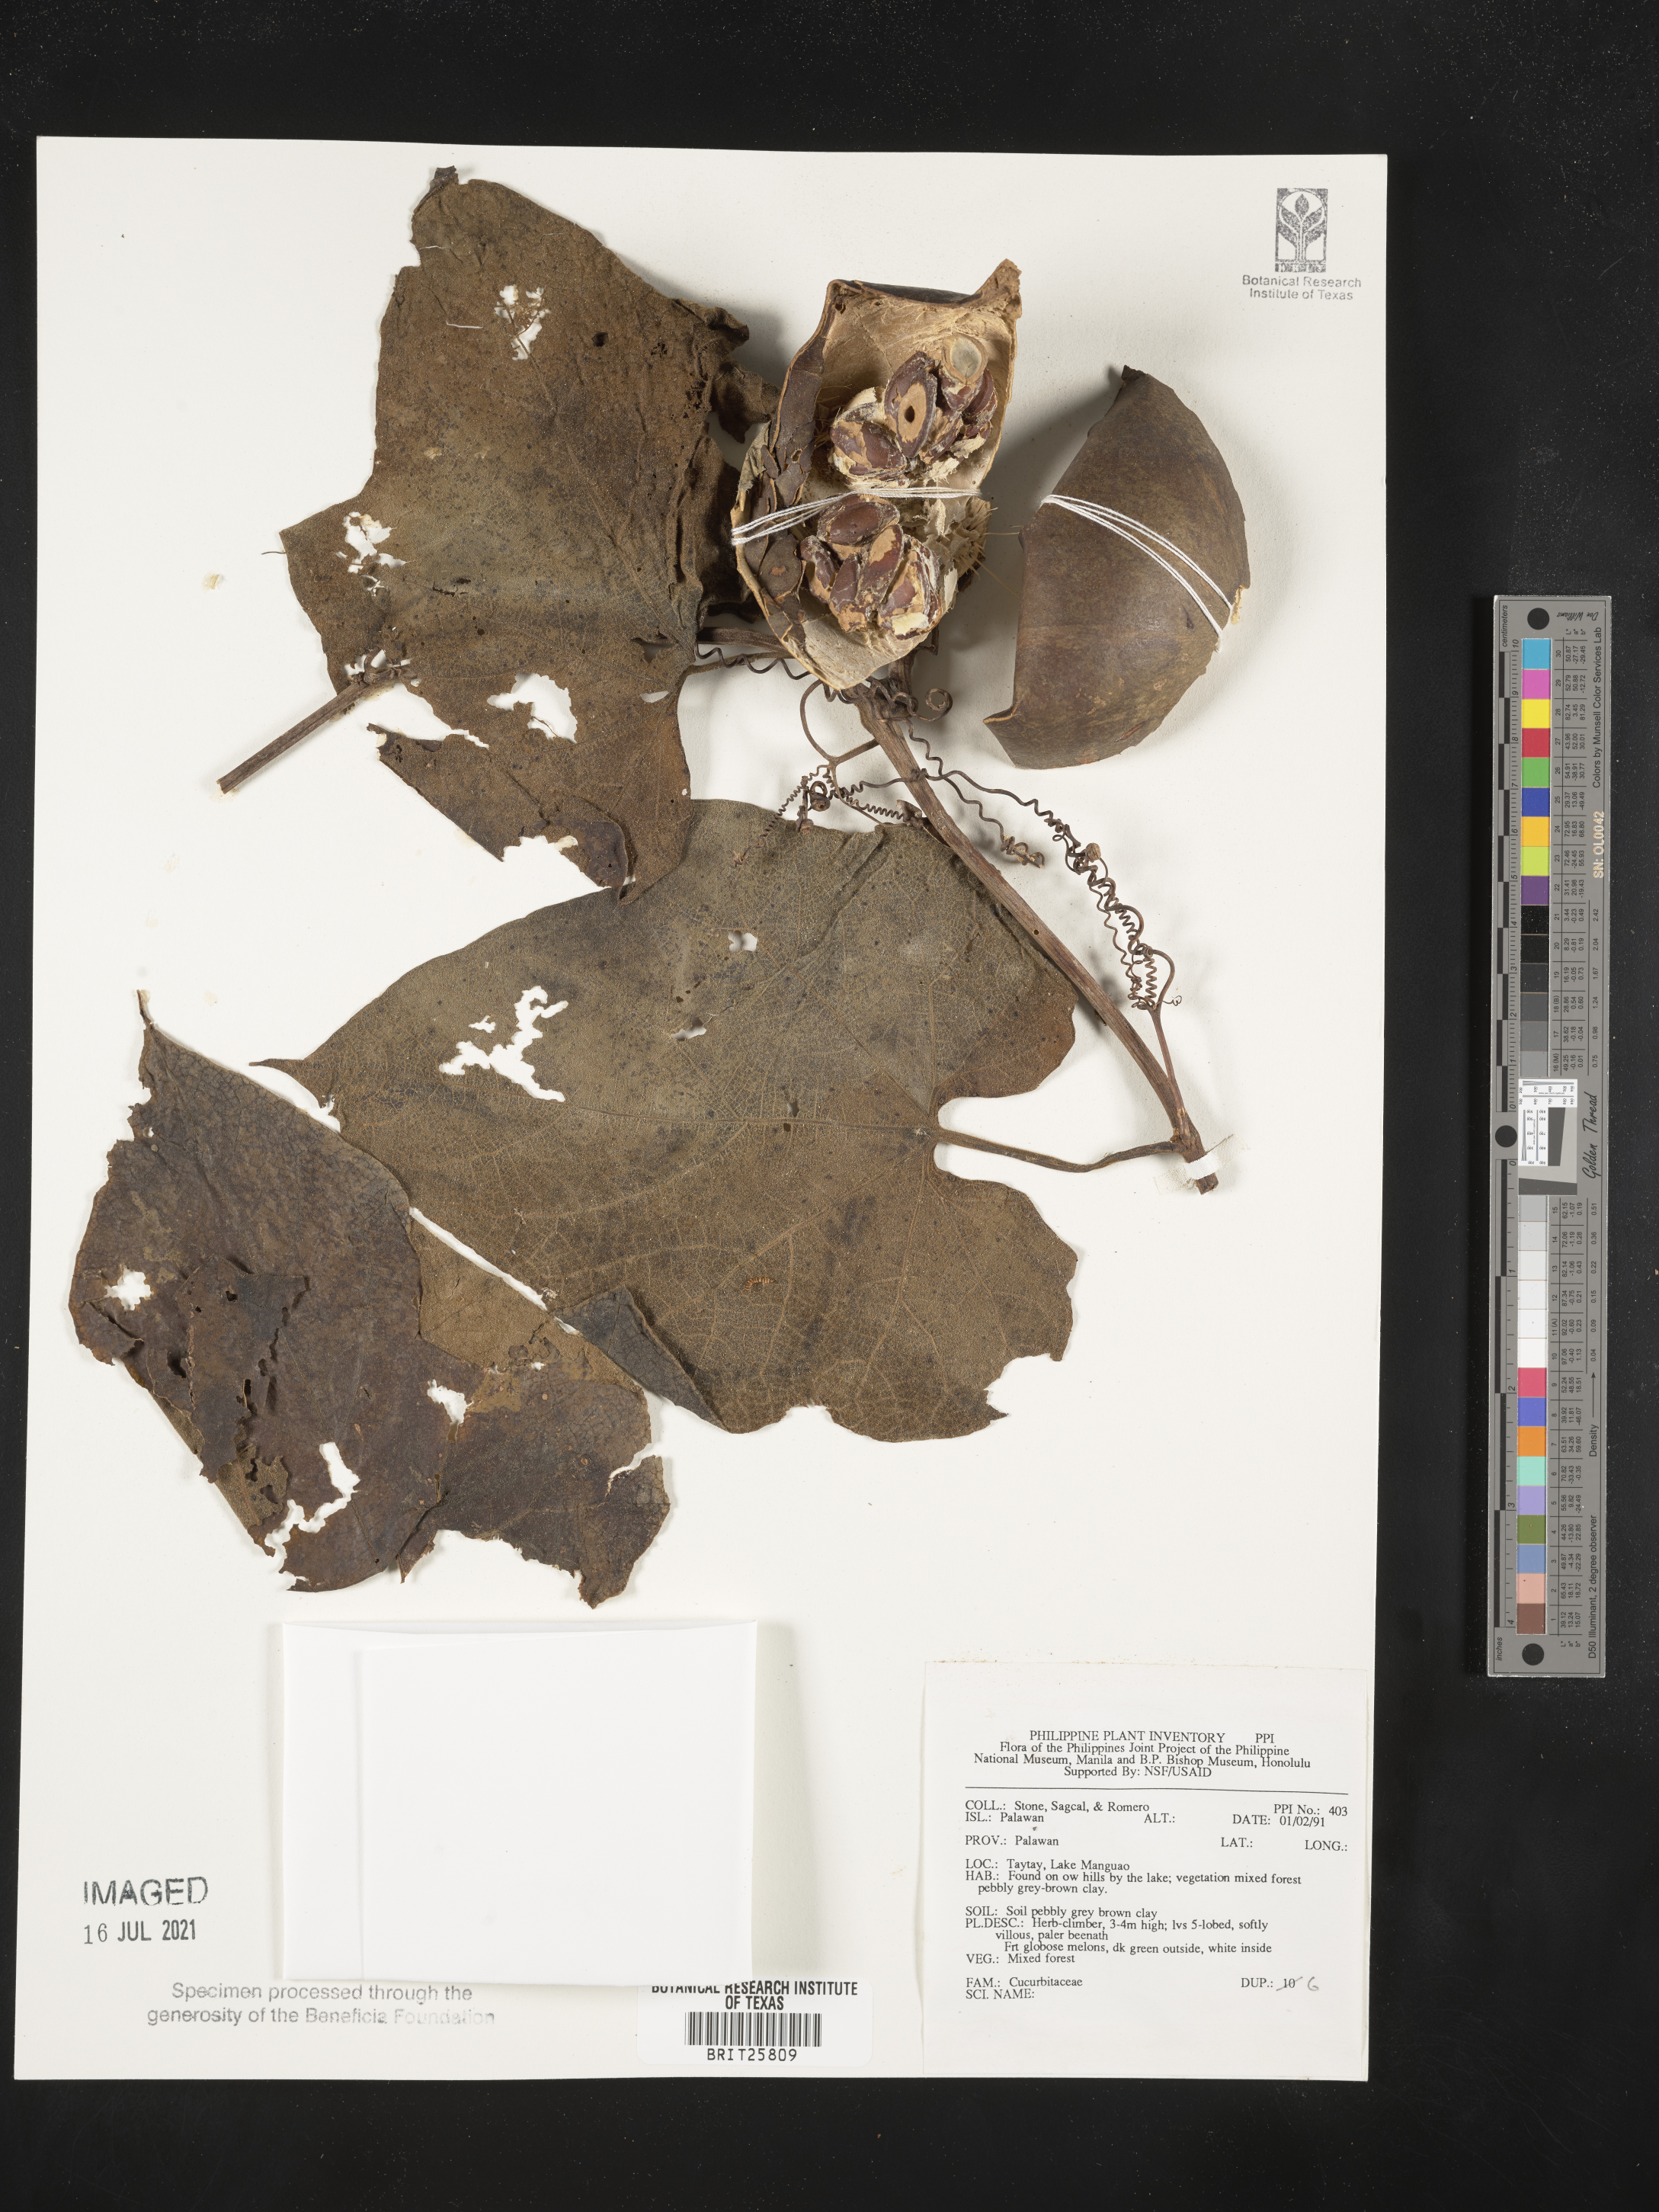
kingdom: Plantae
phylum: Tracheophyta
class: Magnoliopsida
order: Cucurbitales
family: Cucurbitaceae
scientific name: Cucurbitaceae
